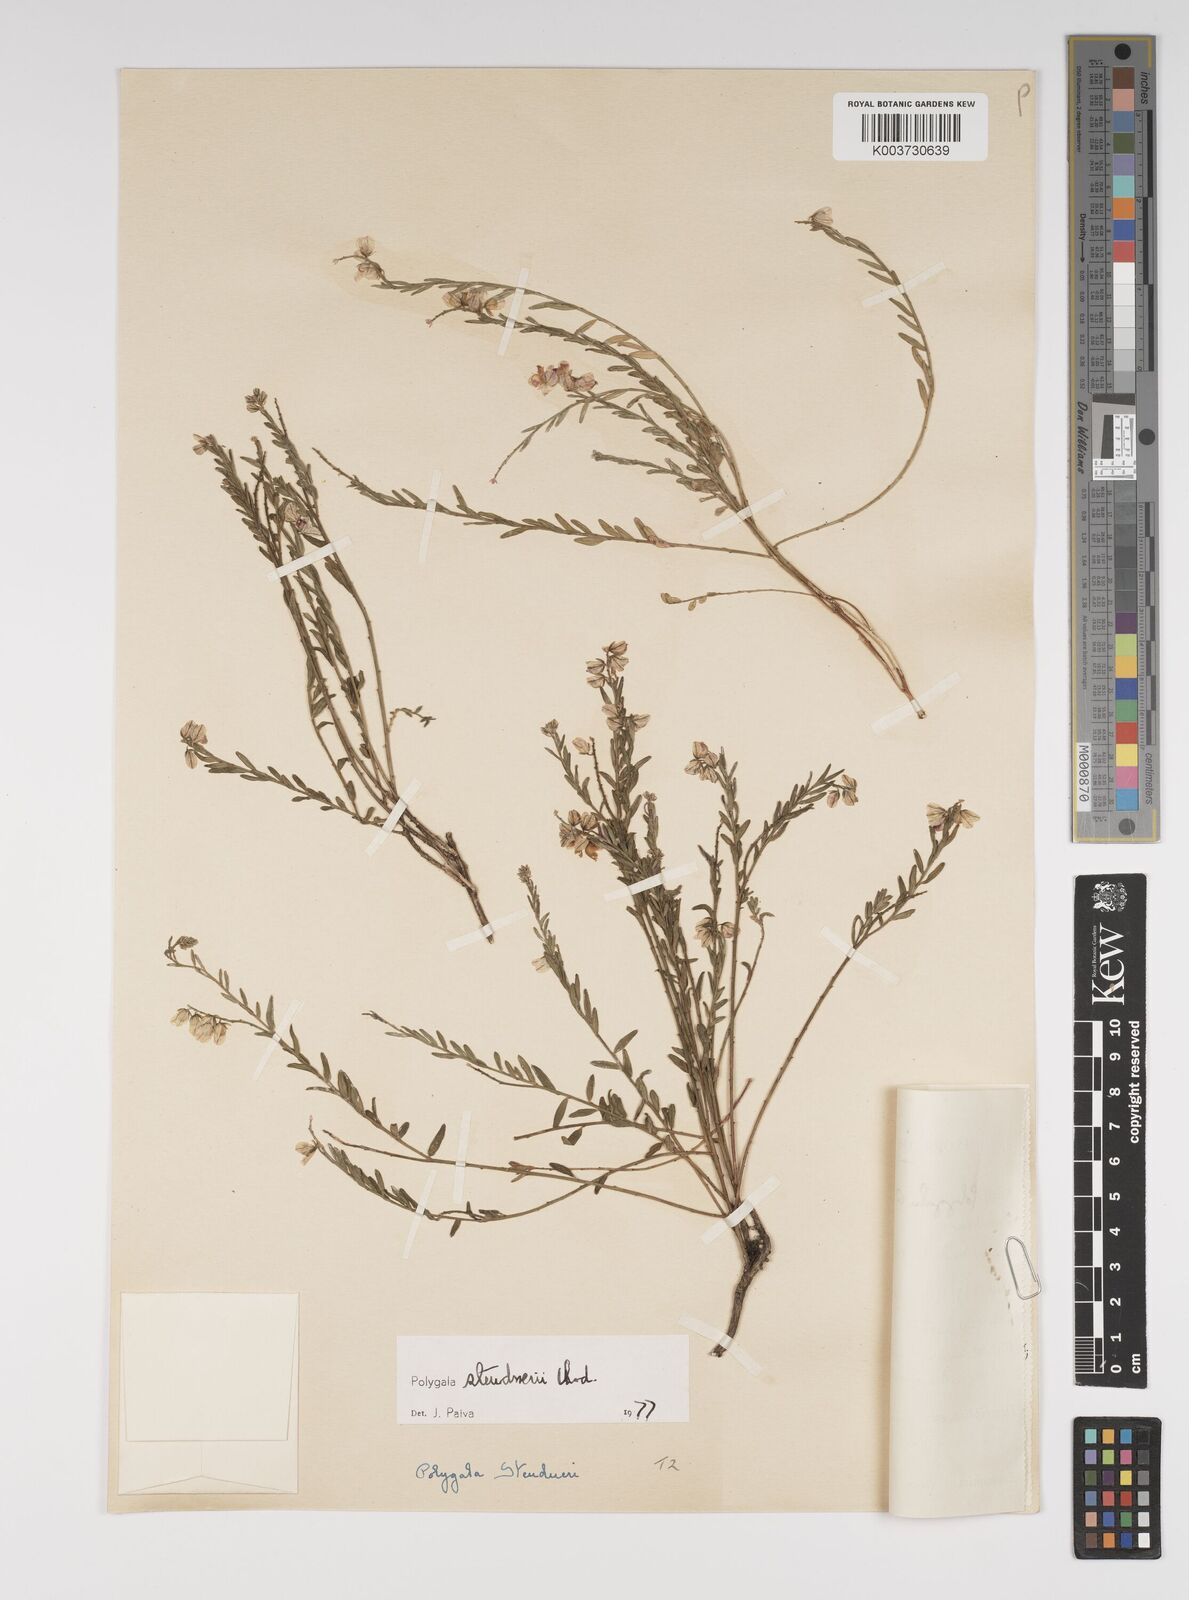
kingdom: Plantae
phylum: Tracheophyta
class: Magnoliopsida
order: Fabales
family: Polygalaceae
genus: Polygala
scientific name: Polygala steudneri
